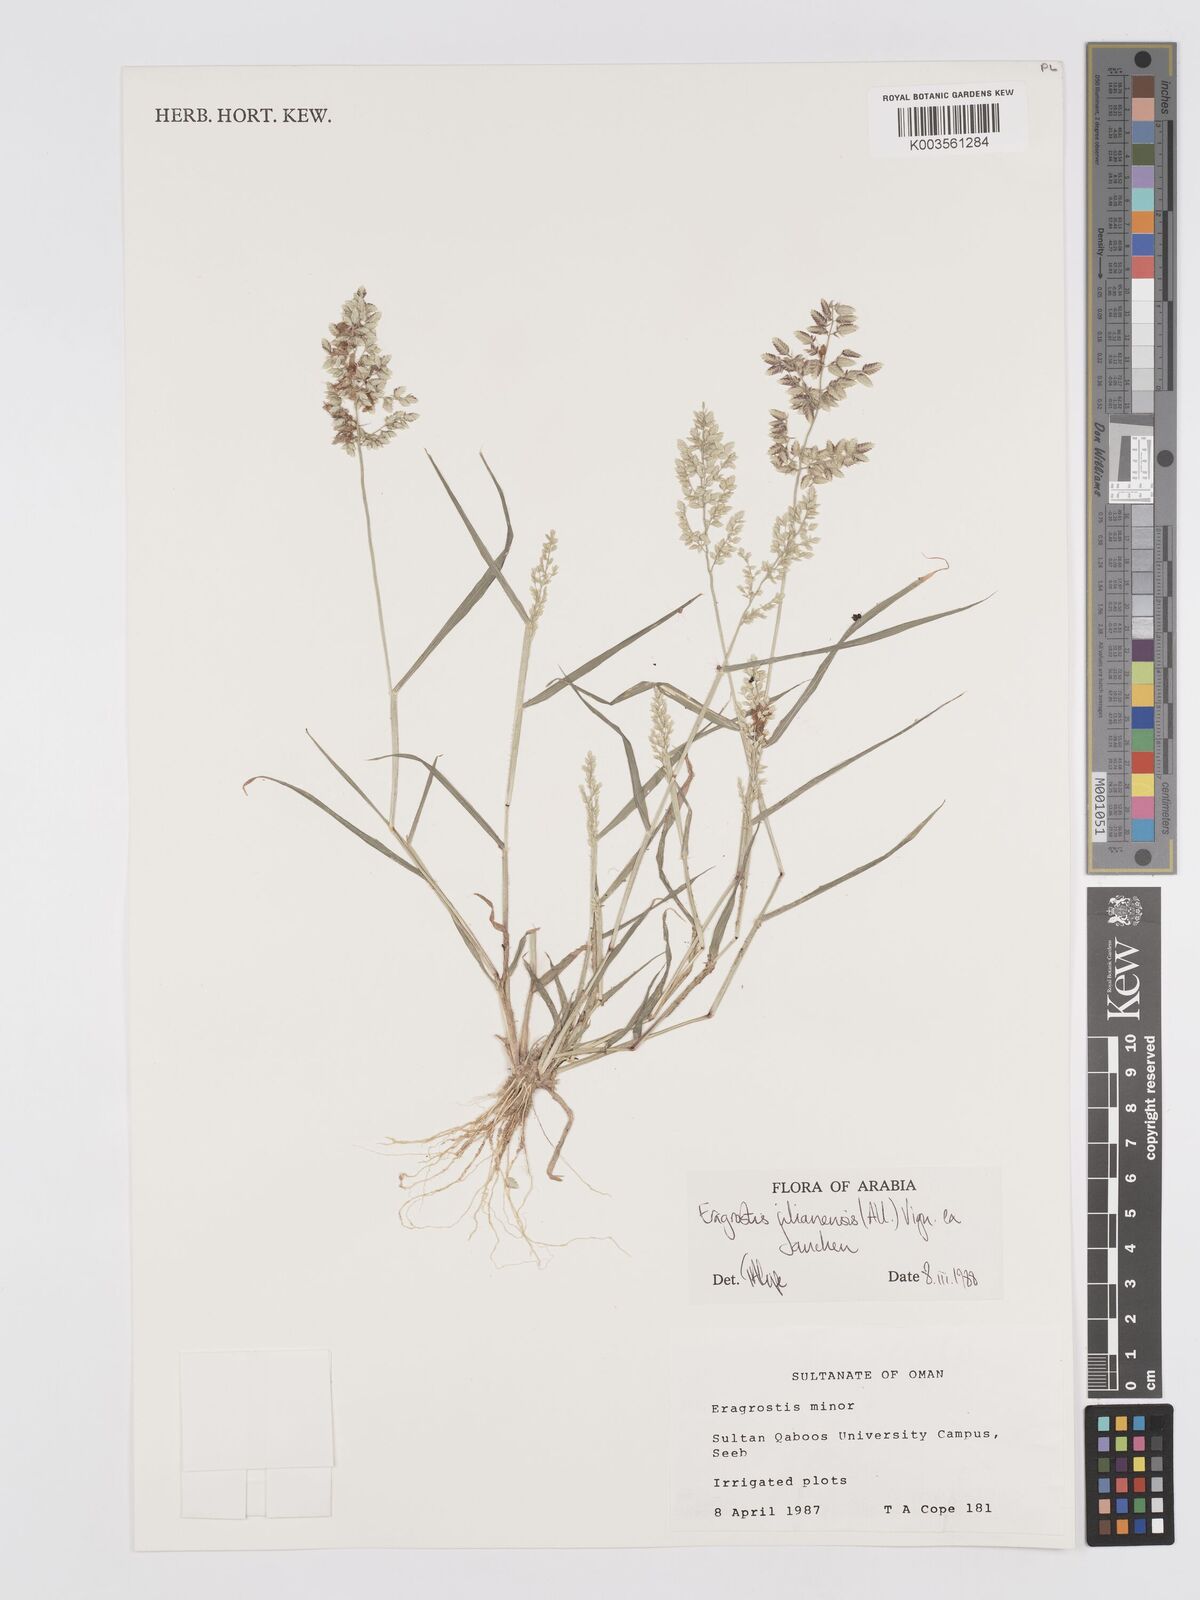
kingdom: Plantae
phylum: Tracheophyta
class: Liliopsida
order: Poales
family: Poaceae
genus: Eragrostis
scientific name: Eragrostis cilianensis
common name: Stinkgrass
